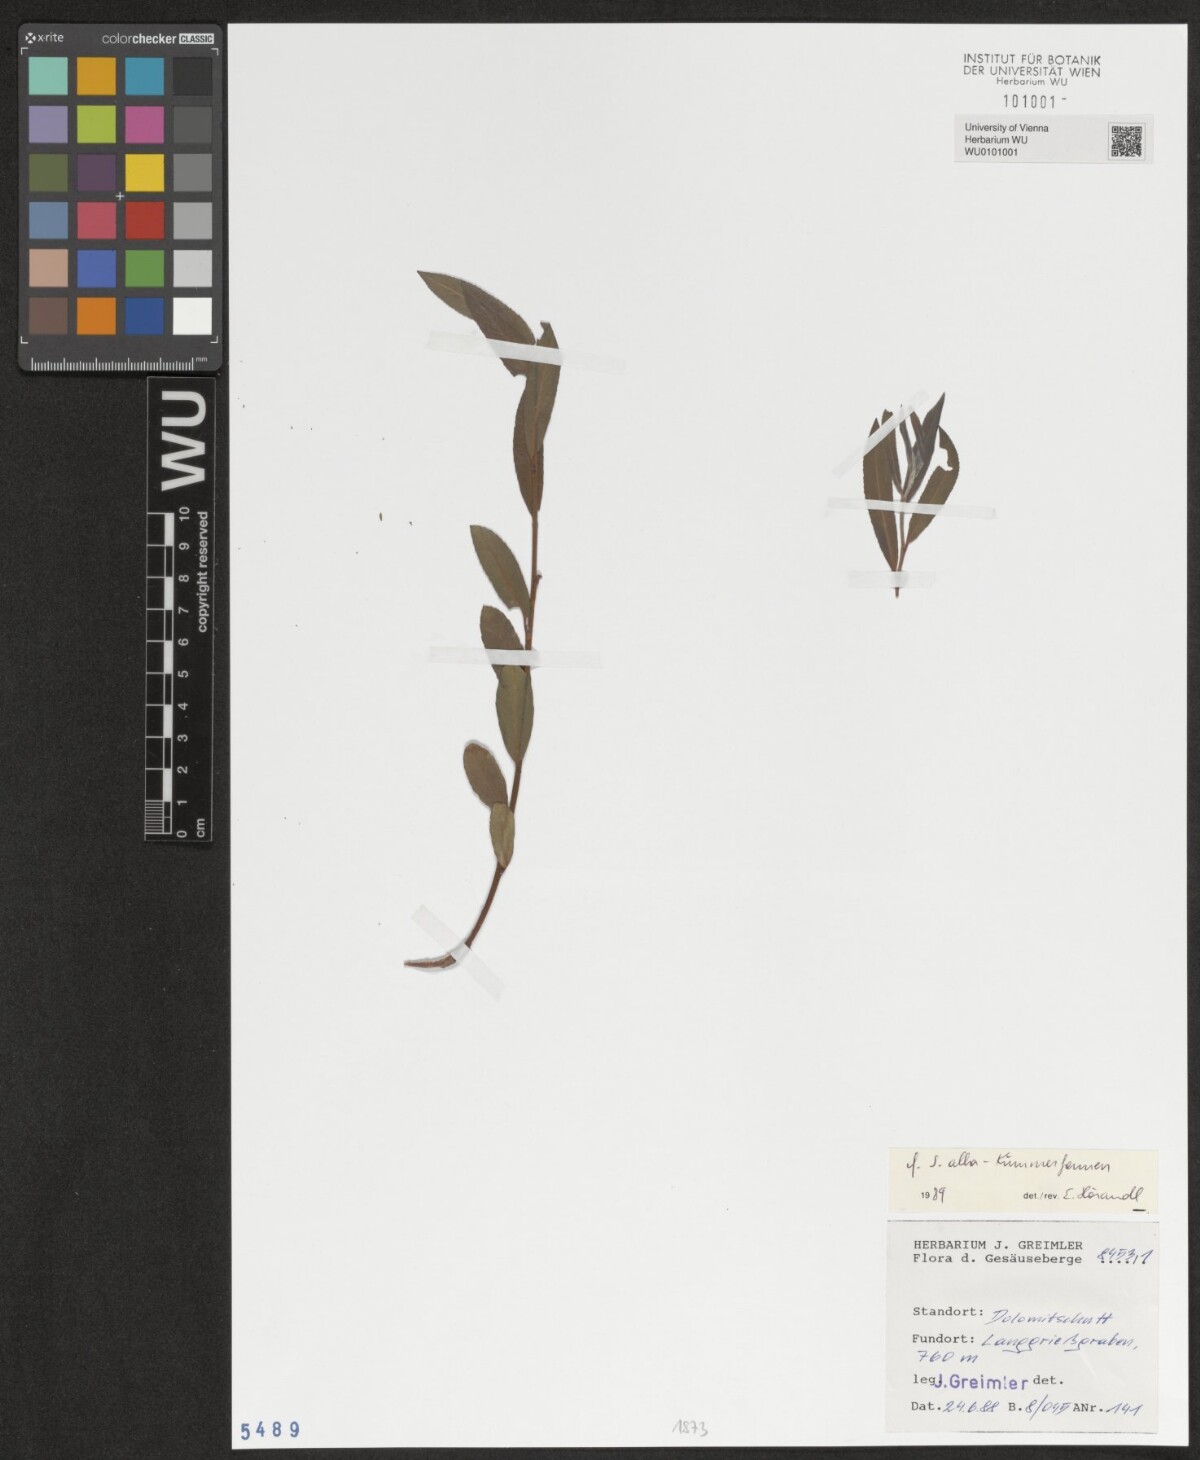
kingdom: Plantae
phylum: Tracheophyta
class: Magnoliopsida
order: Malpighiales
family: Salicaceae
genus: Salix
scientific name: Salix alba
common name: White willow
